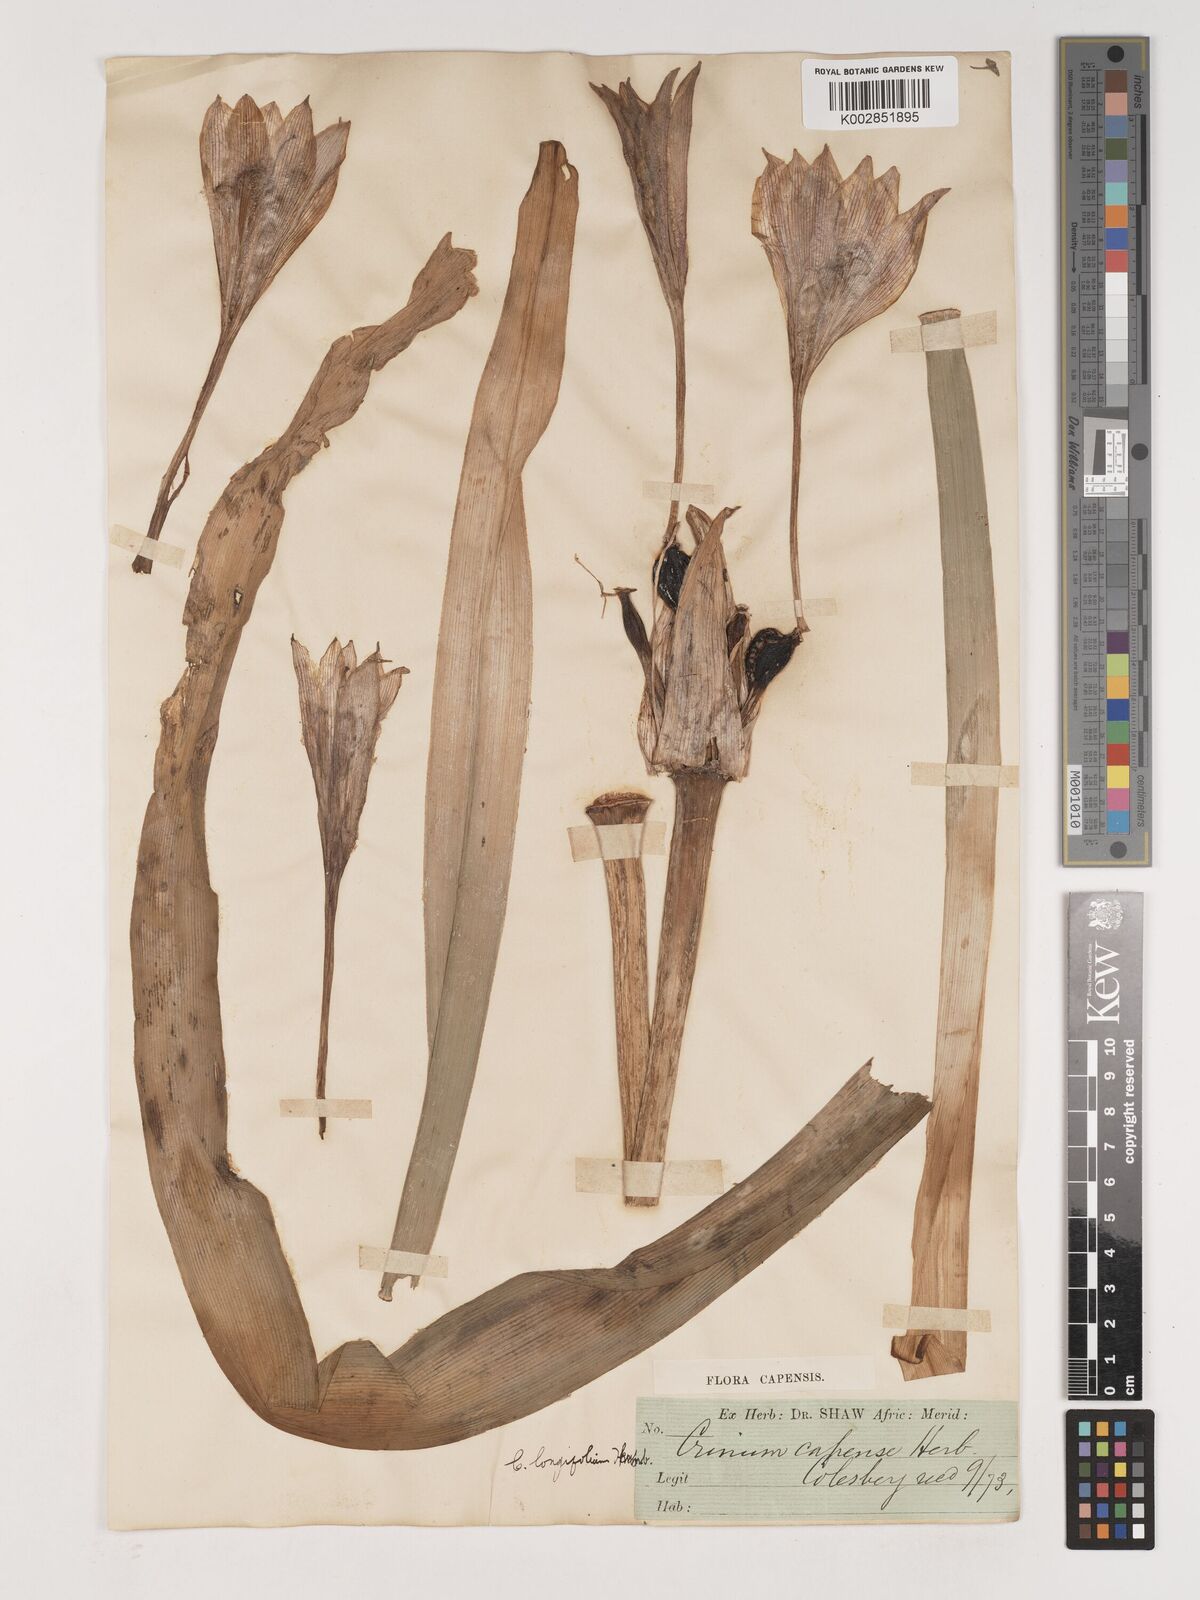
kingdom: Plantae
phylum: Tracheophyta
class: Liliopsida
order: Asparagales
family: Amaryllidaceae
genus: Crinum
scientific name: Crinum bulbispermum
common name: Hardy swamplily
